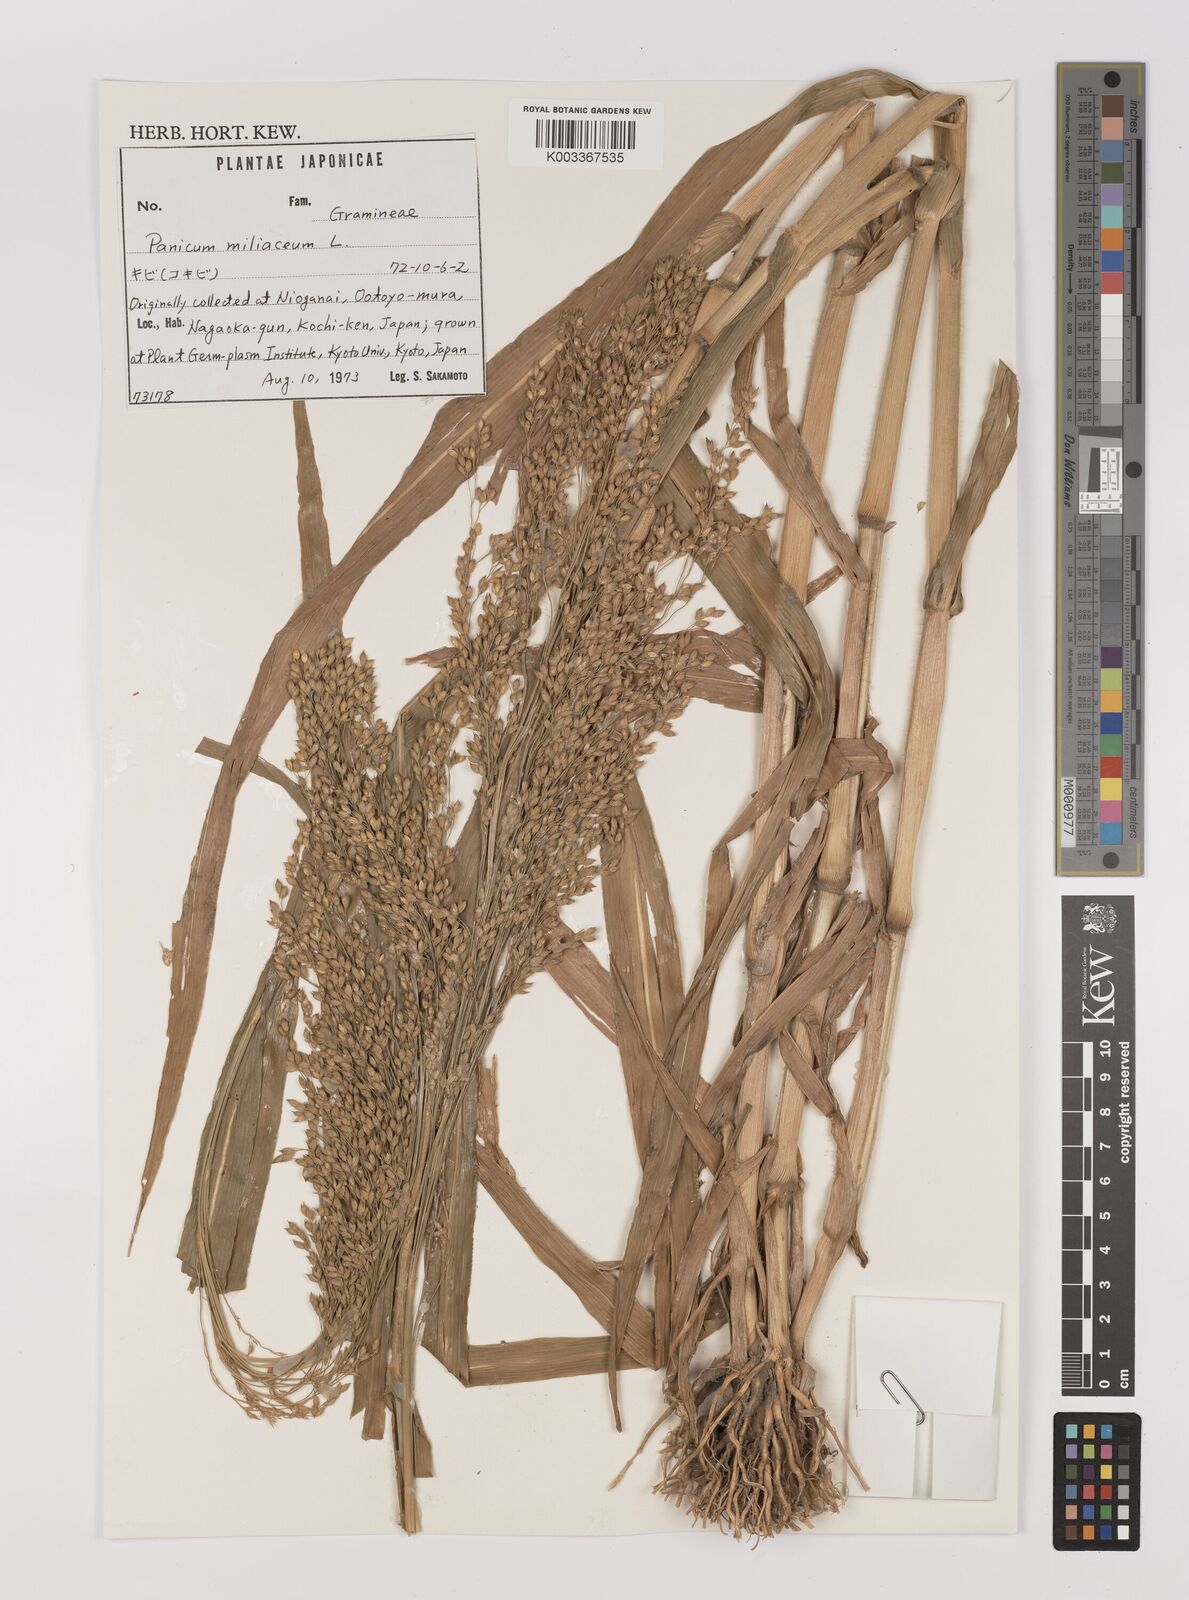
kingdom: Plantae
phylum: Tracheophyta
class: Liliopsida
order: Poales
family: Poaceae
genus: Panicum
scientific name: Panicum miliaceum
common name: Common millet
